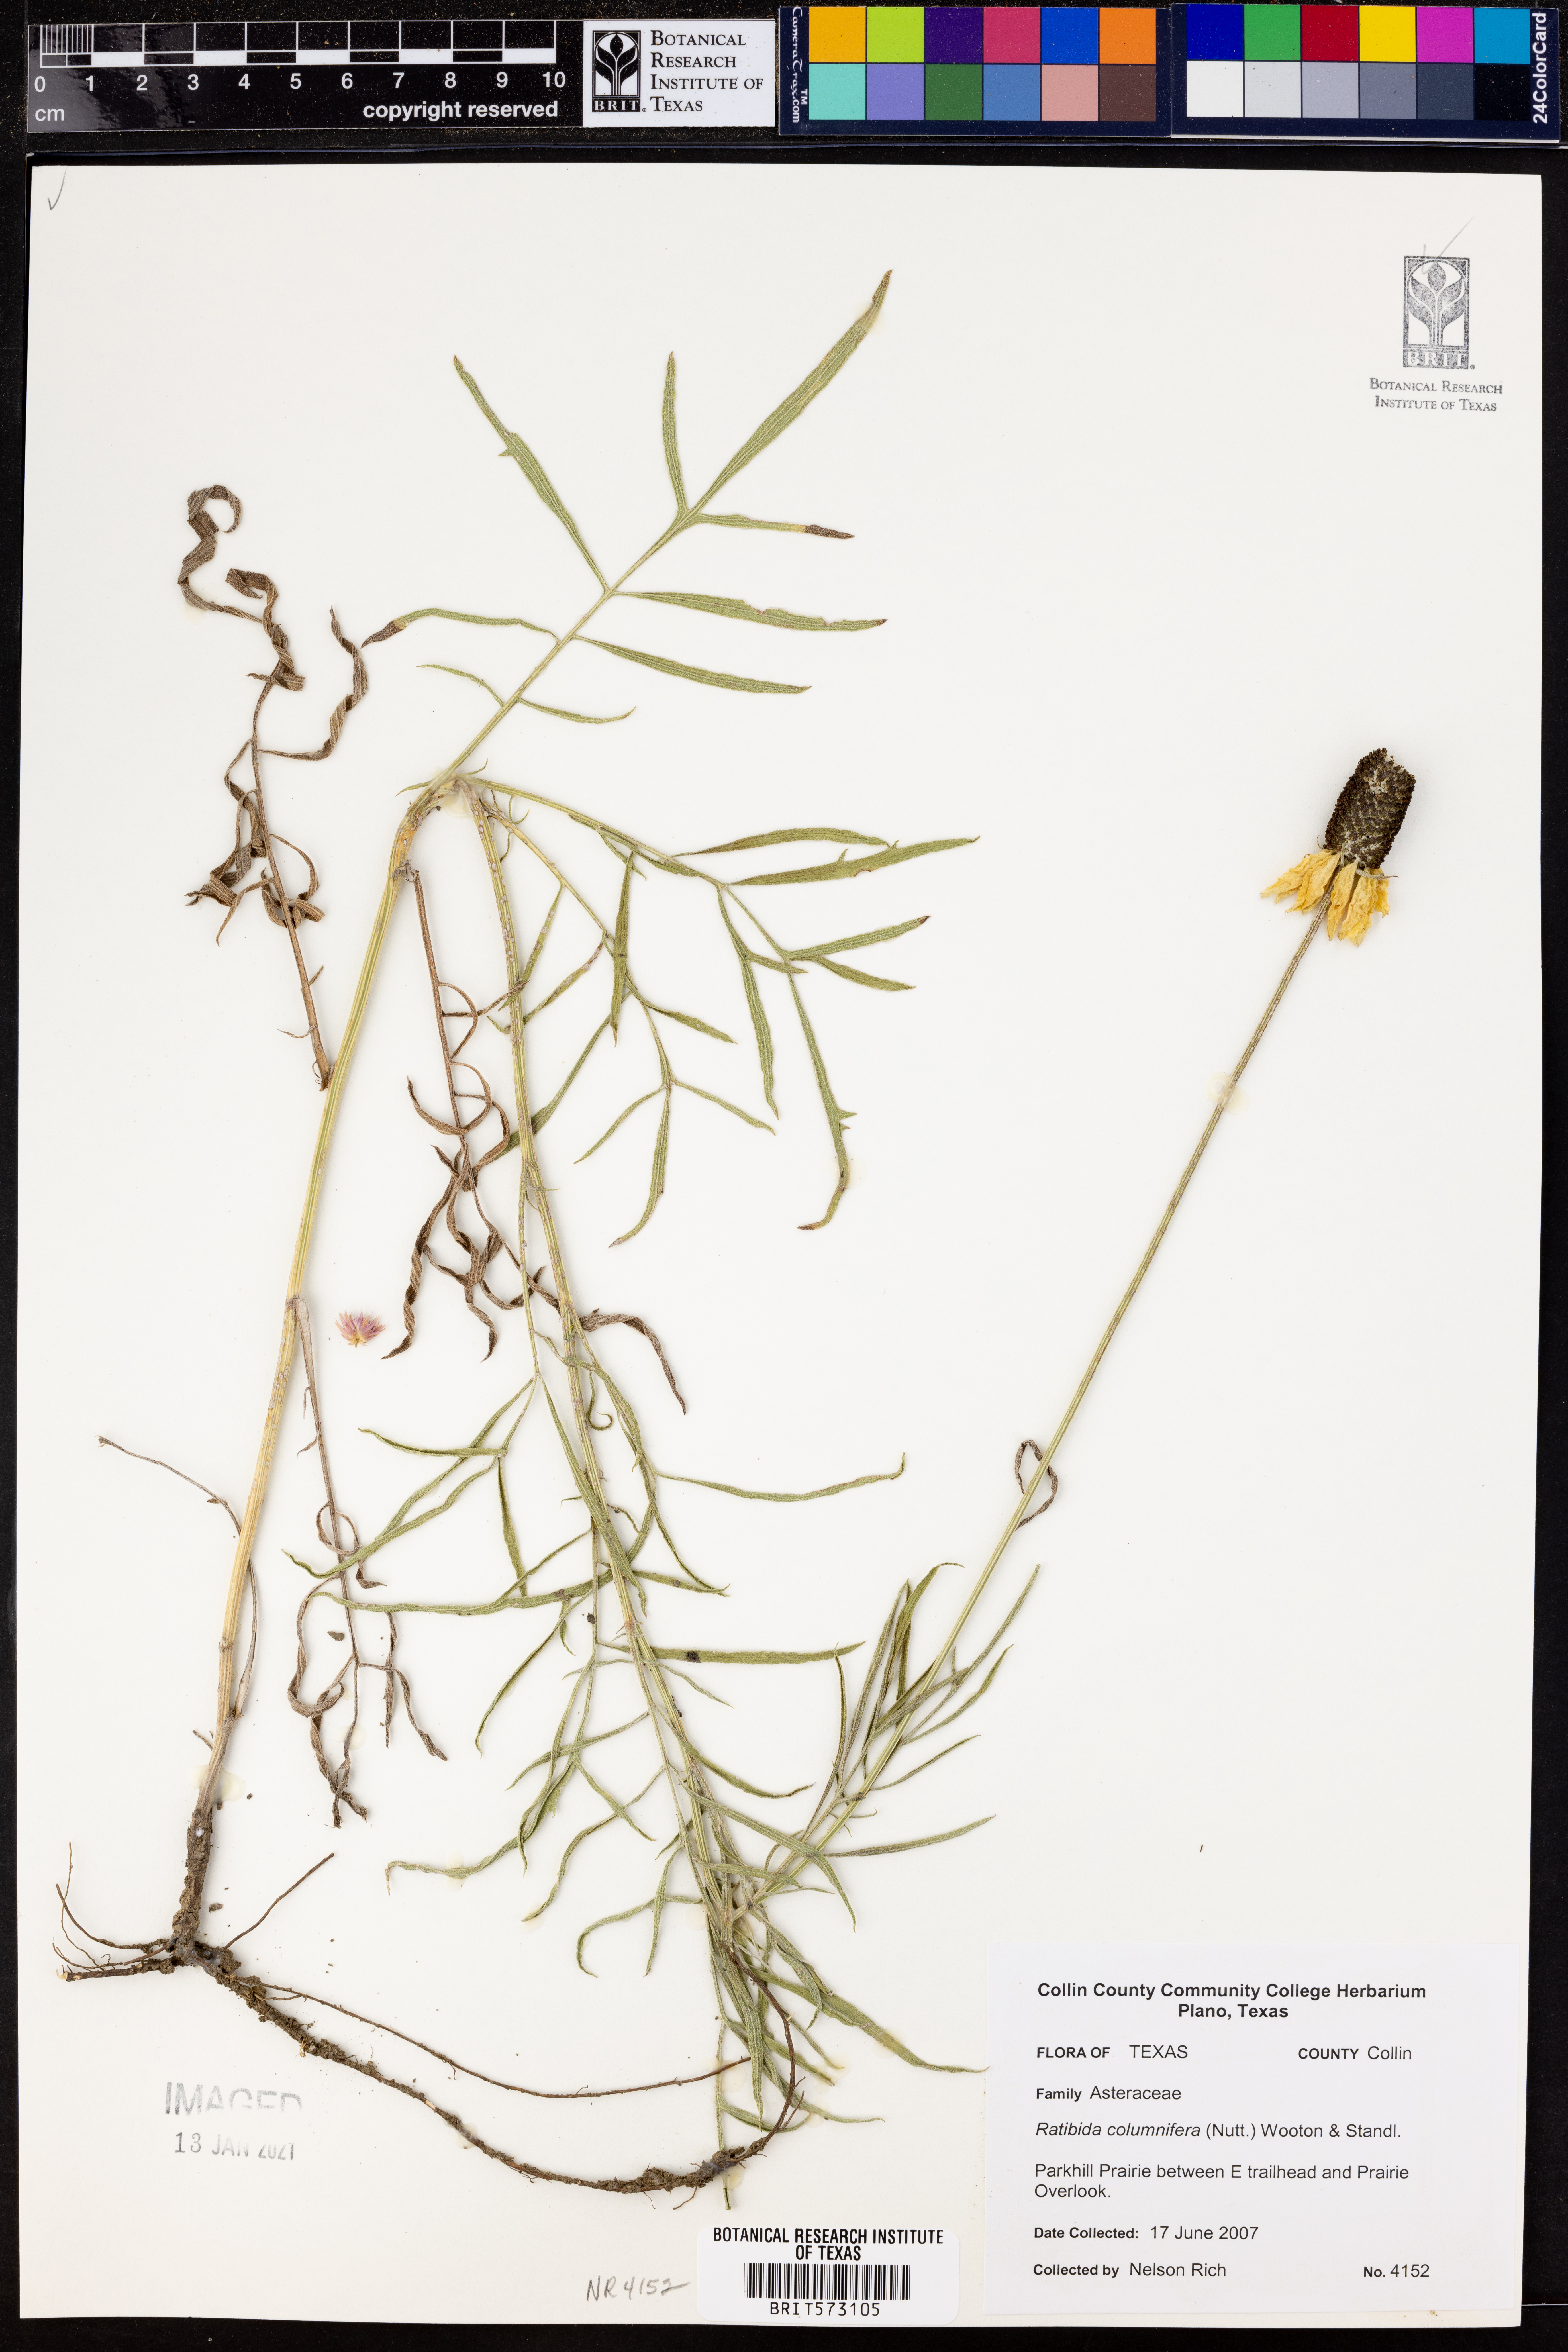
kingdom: Plantae
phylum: Tracheophyta
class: Magnoliopsida
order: Asterales
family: Asteraceae
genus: Ratibida
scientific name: Ratibida columnifera
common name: Prairie coneflower
